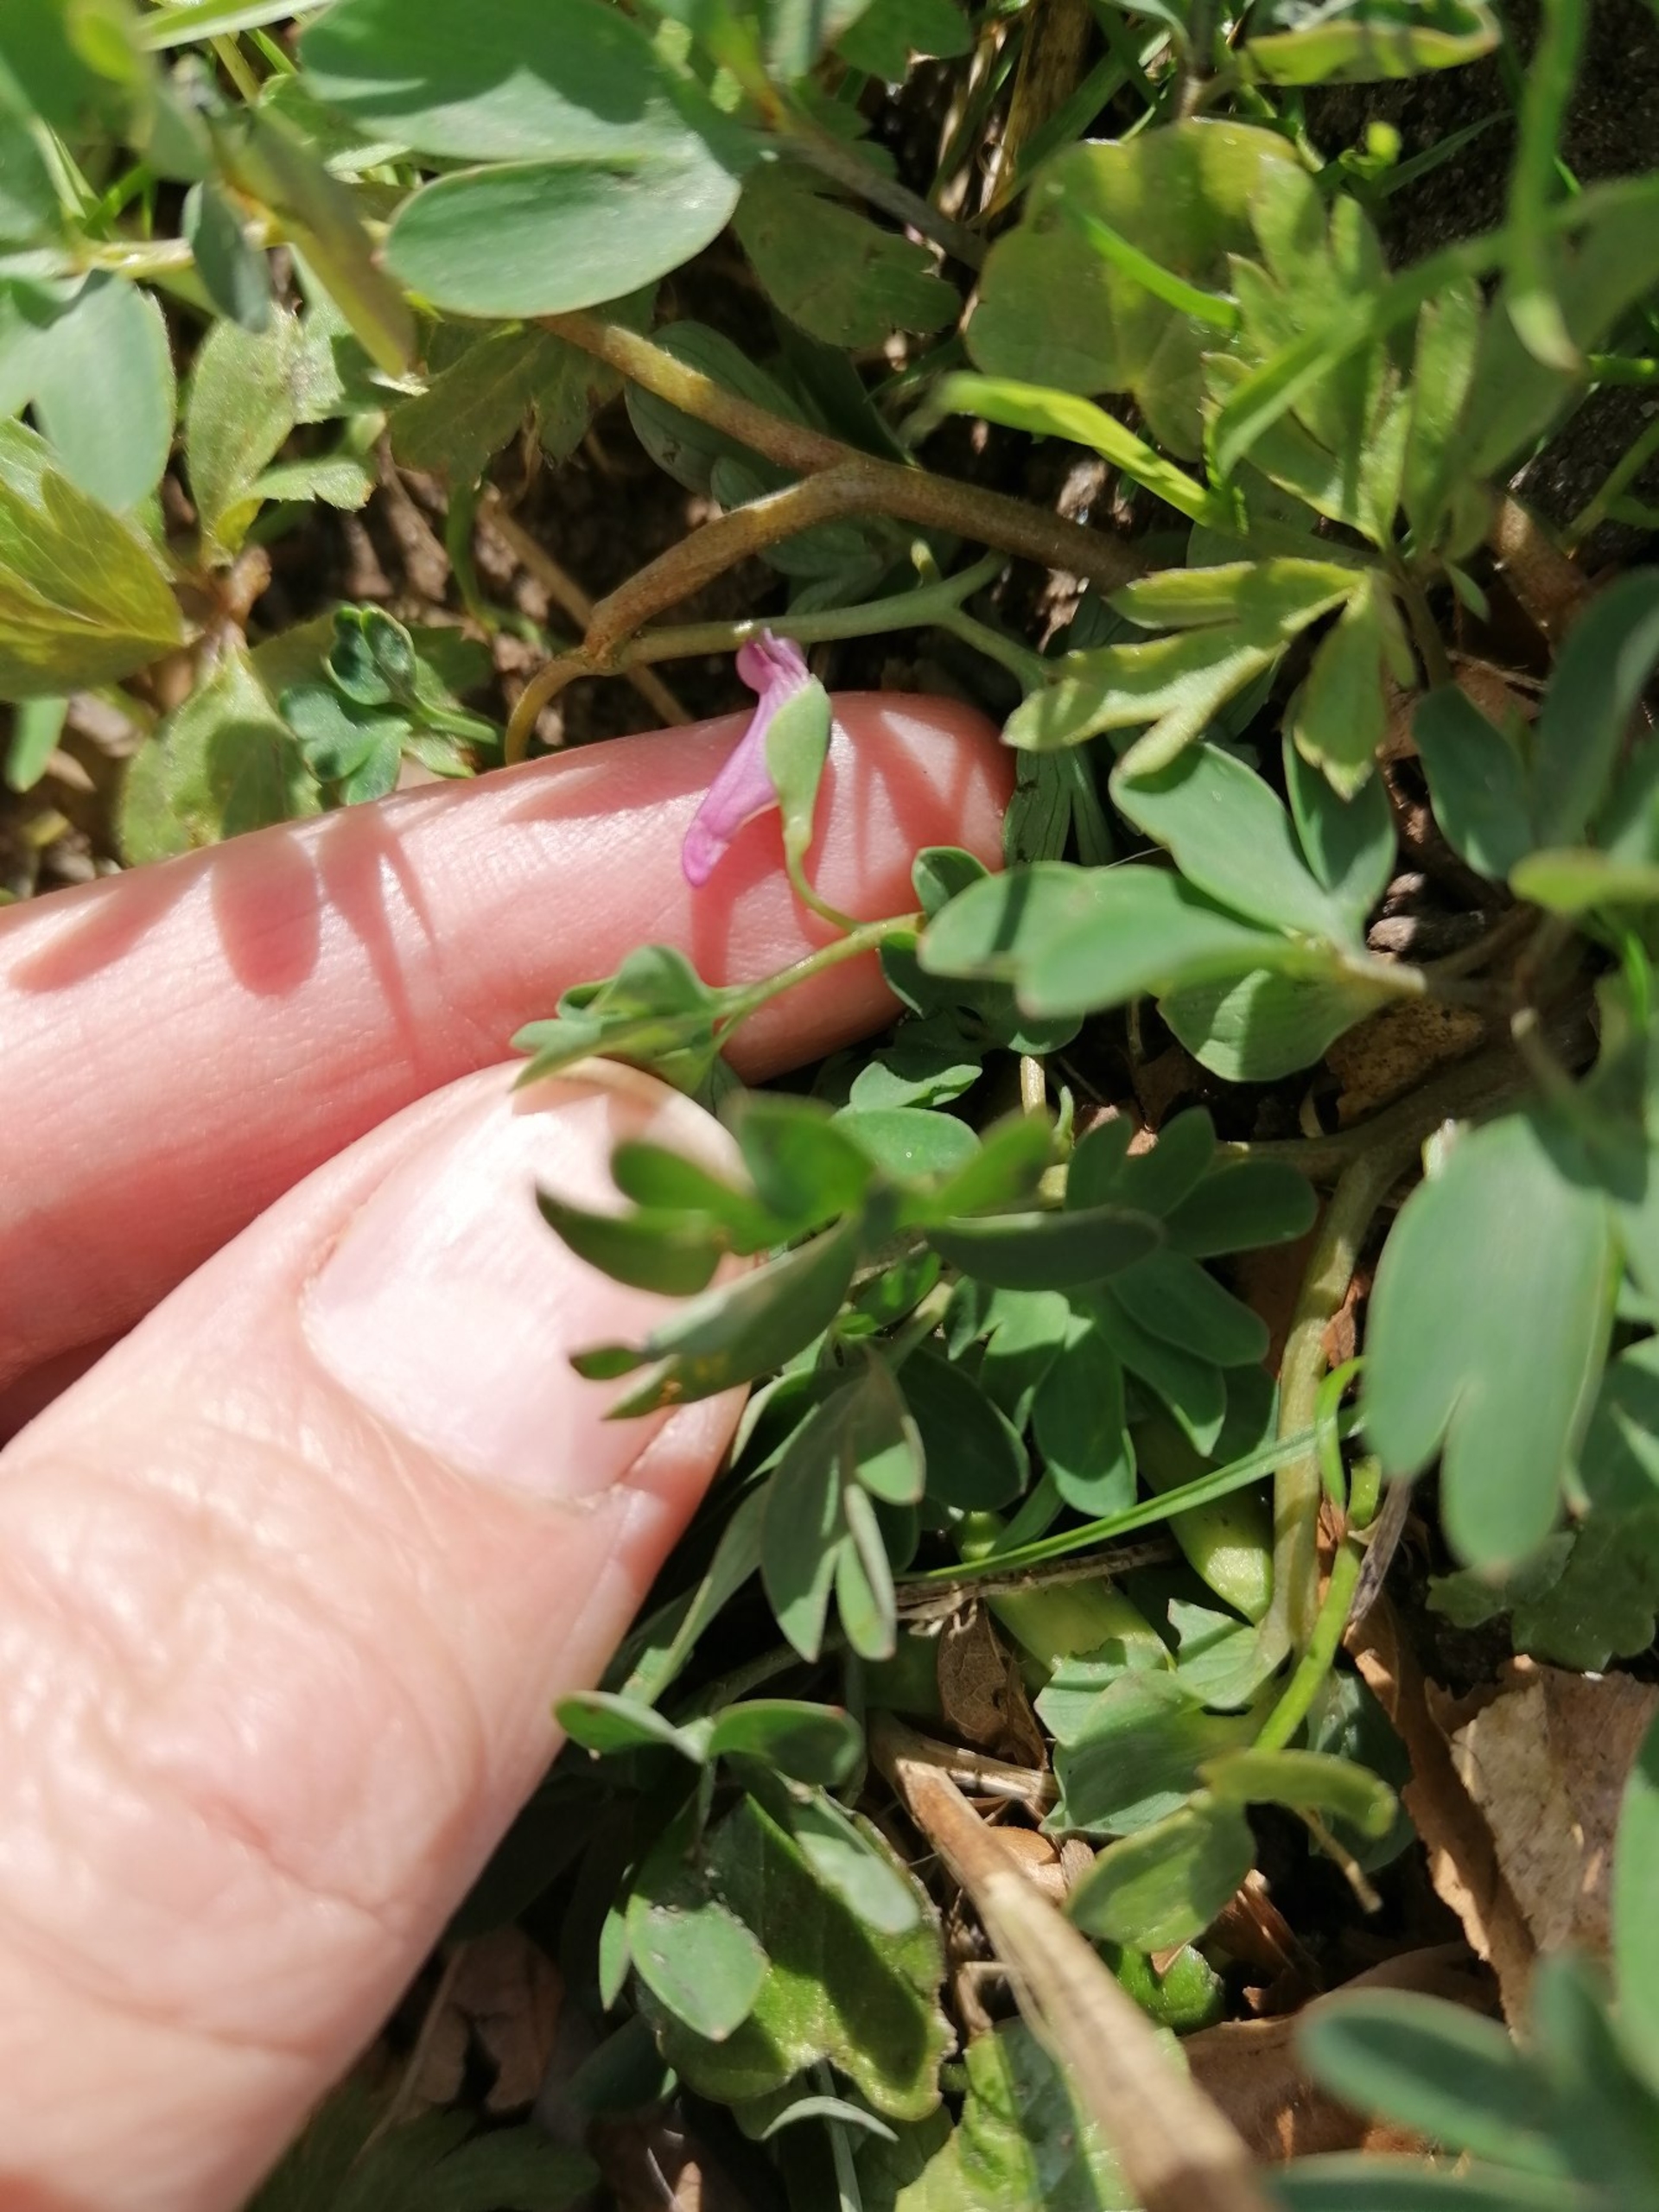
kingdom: Plantae
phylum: Tracheophyta
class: Magnoliopsida
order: Ranunculales
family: Papaveraceae
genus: Corydalis
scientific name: Corydalis intermedia
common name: Liden lærkespore
